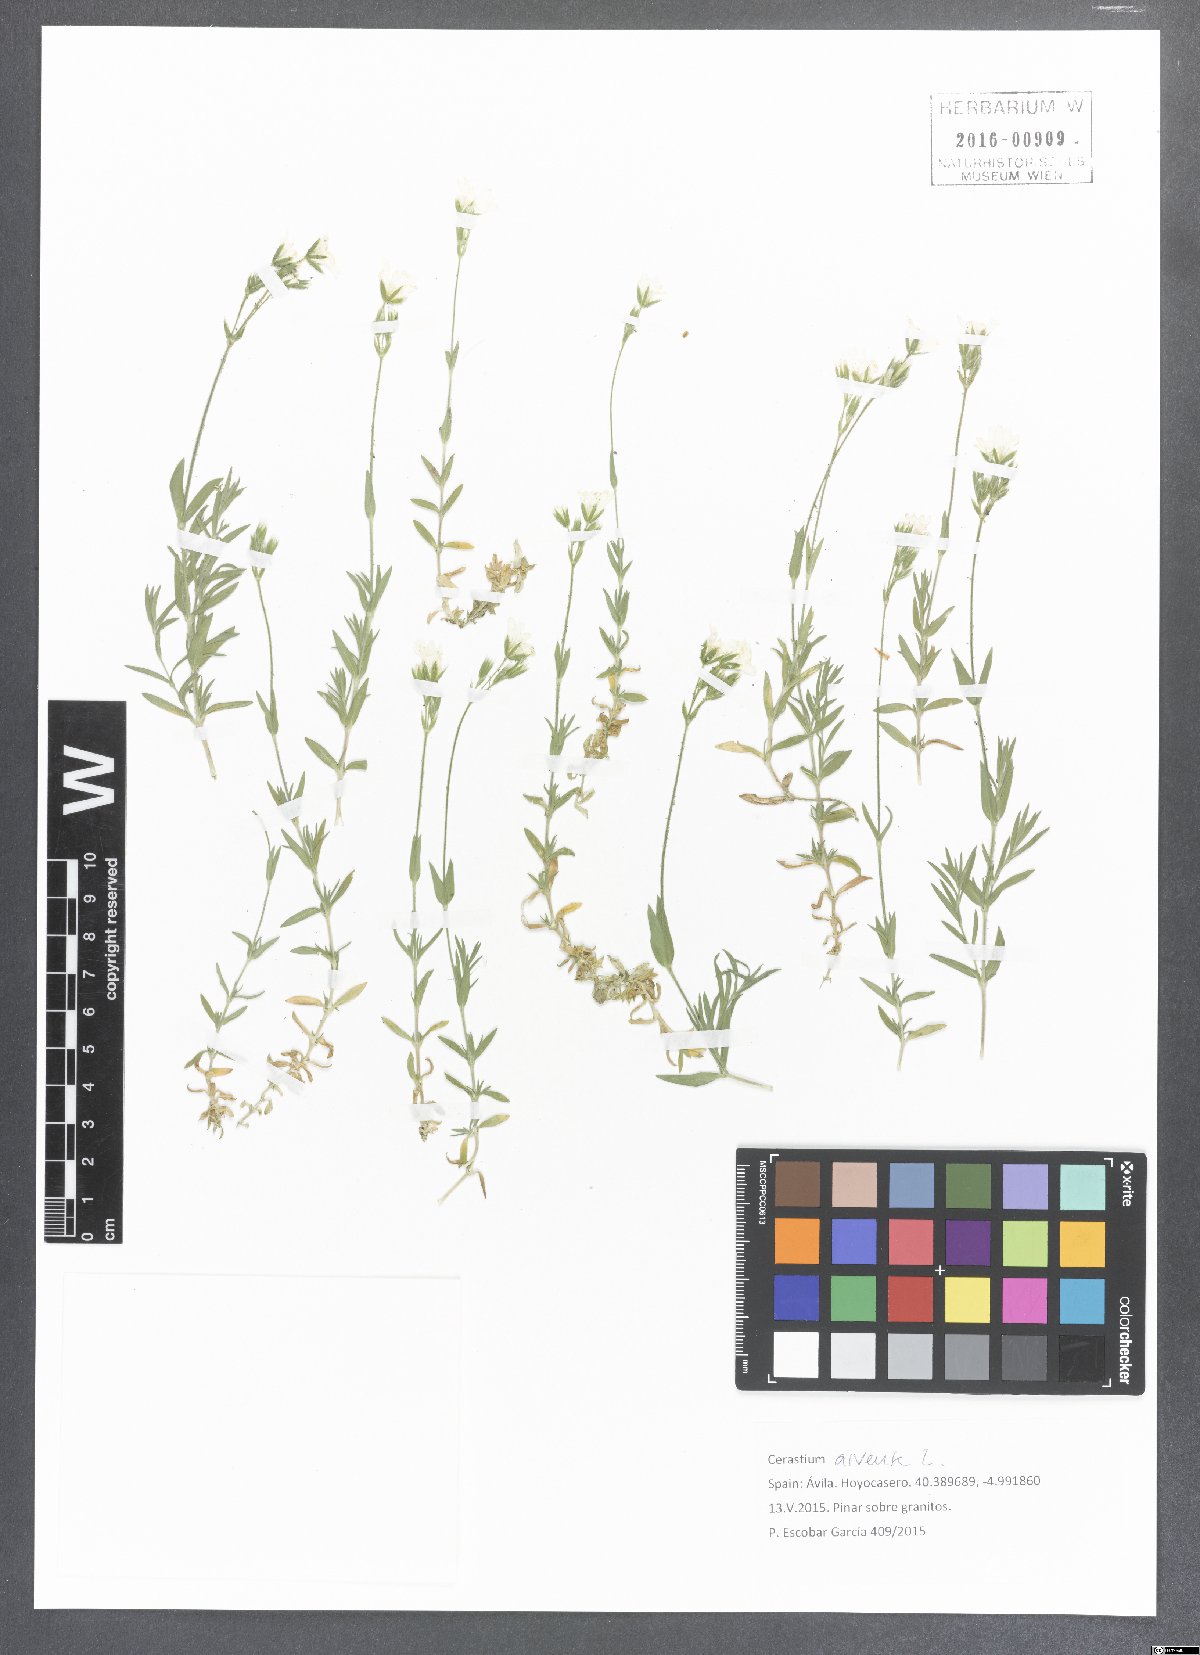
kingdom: Plantae
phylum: Tracheophyta
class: Magnoliopsida
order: Caryophyllales
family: Caryophyllaceae
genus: Cerastium
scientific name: Cerastium arvense
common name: Field mouse-ear
